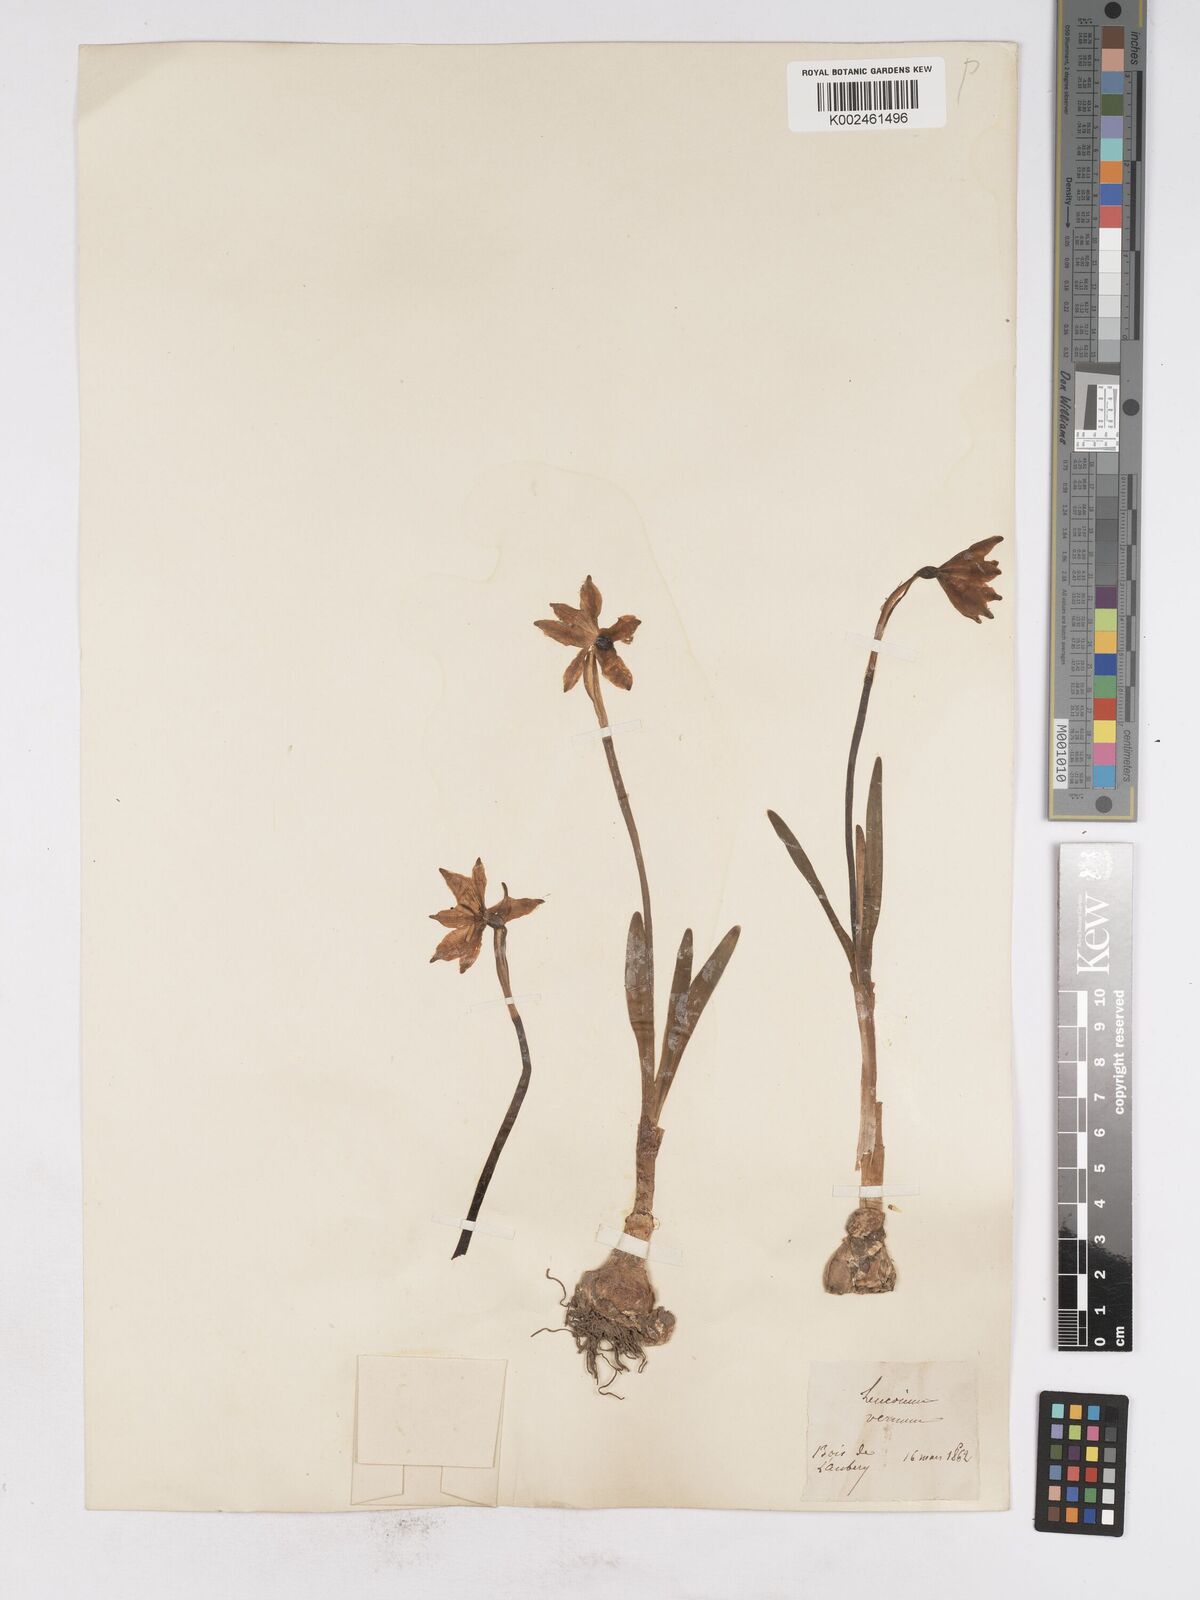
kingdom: Plantae
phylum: Tracheophyta
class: Liliopsida
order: Asparagales
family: Amaryllidaceae
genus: Leucojum
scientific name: Leucojum vernum
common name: Spring snowflake
